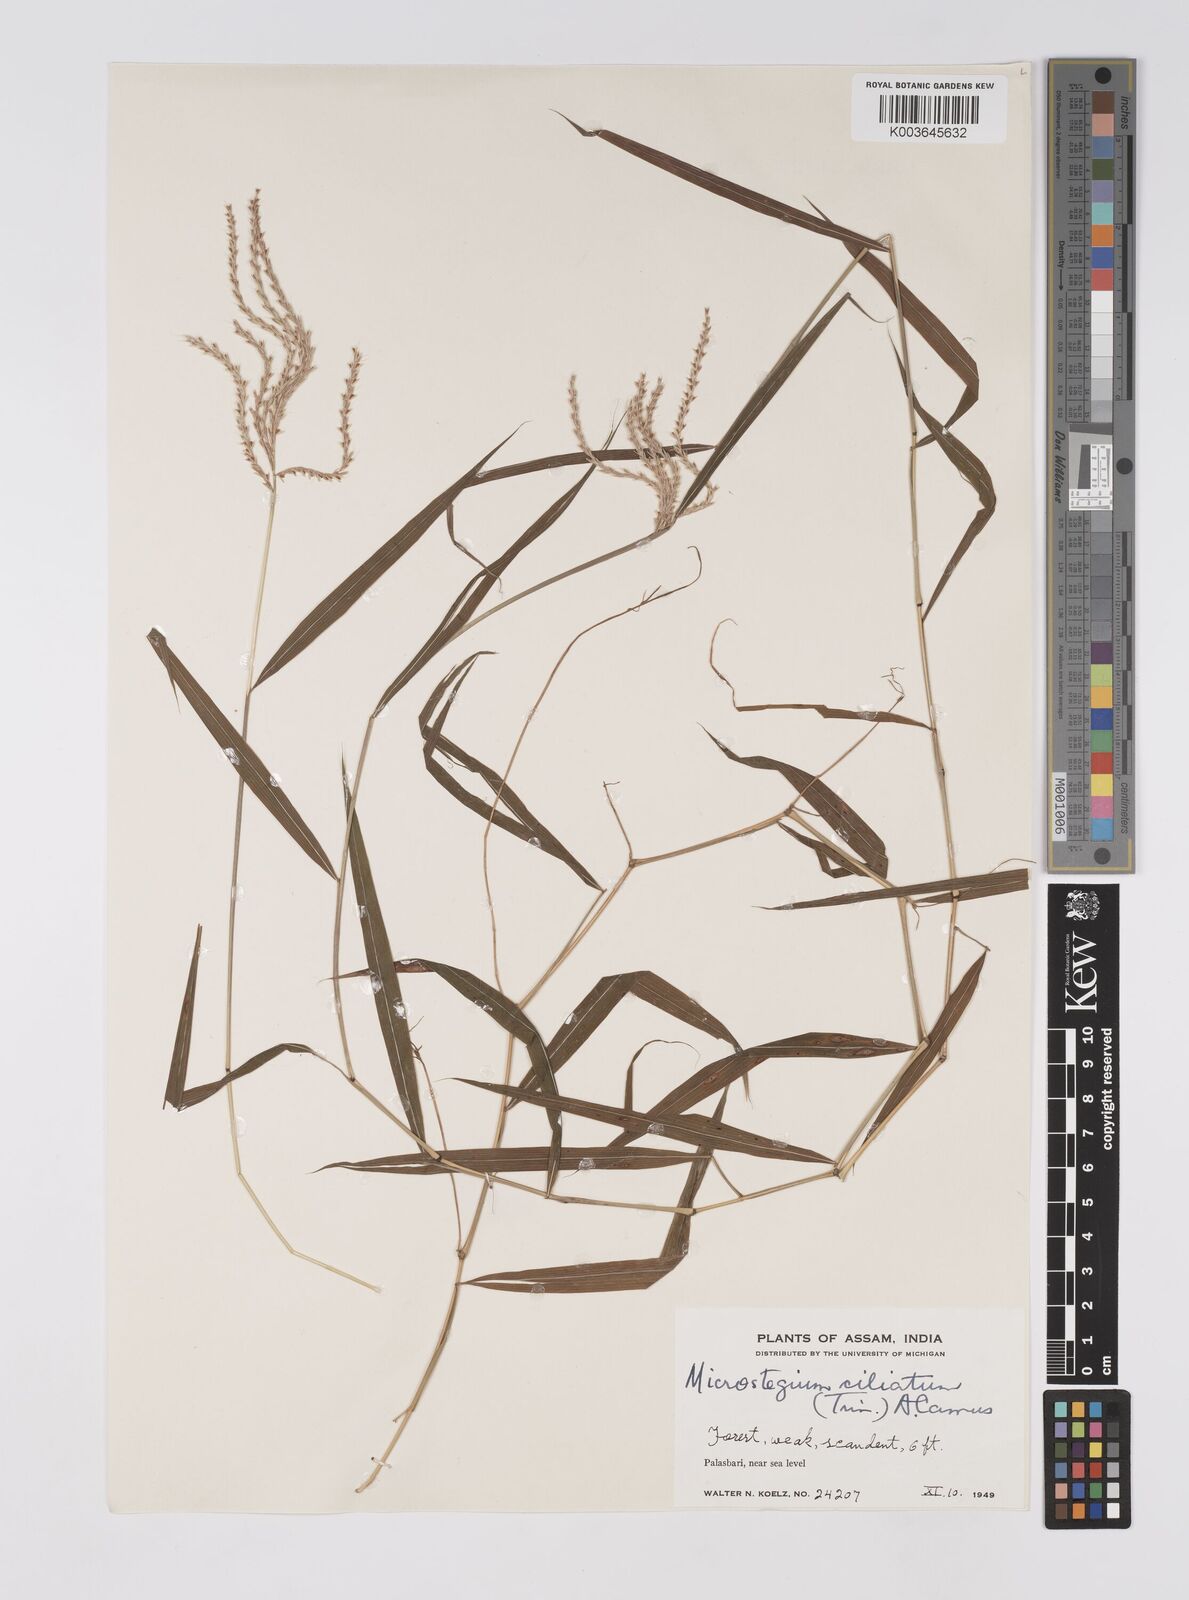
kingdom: Plantae
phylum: Tracheophyta
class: Liliopsida
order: Poales
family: Poaceae
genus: Microstegium
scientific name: Microstegium fasciculatum
